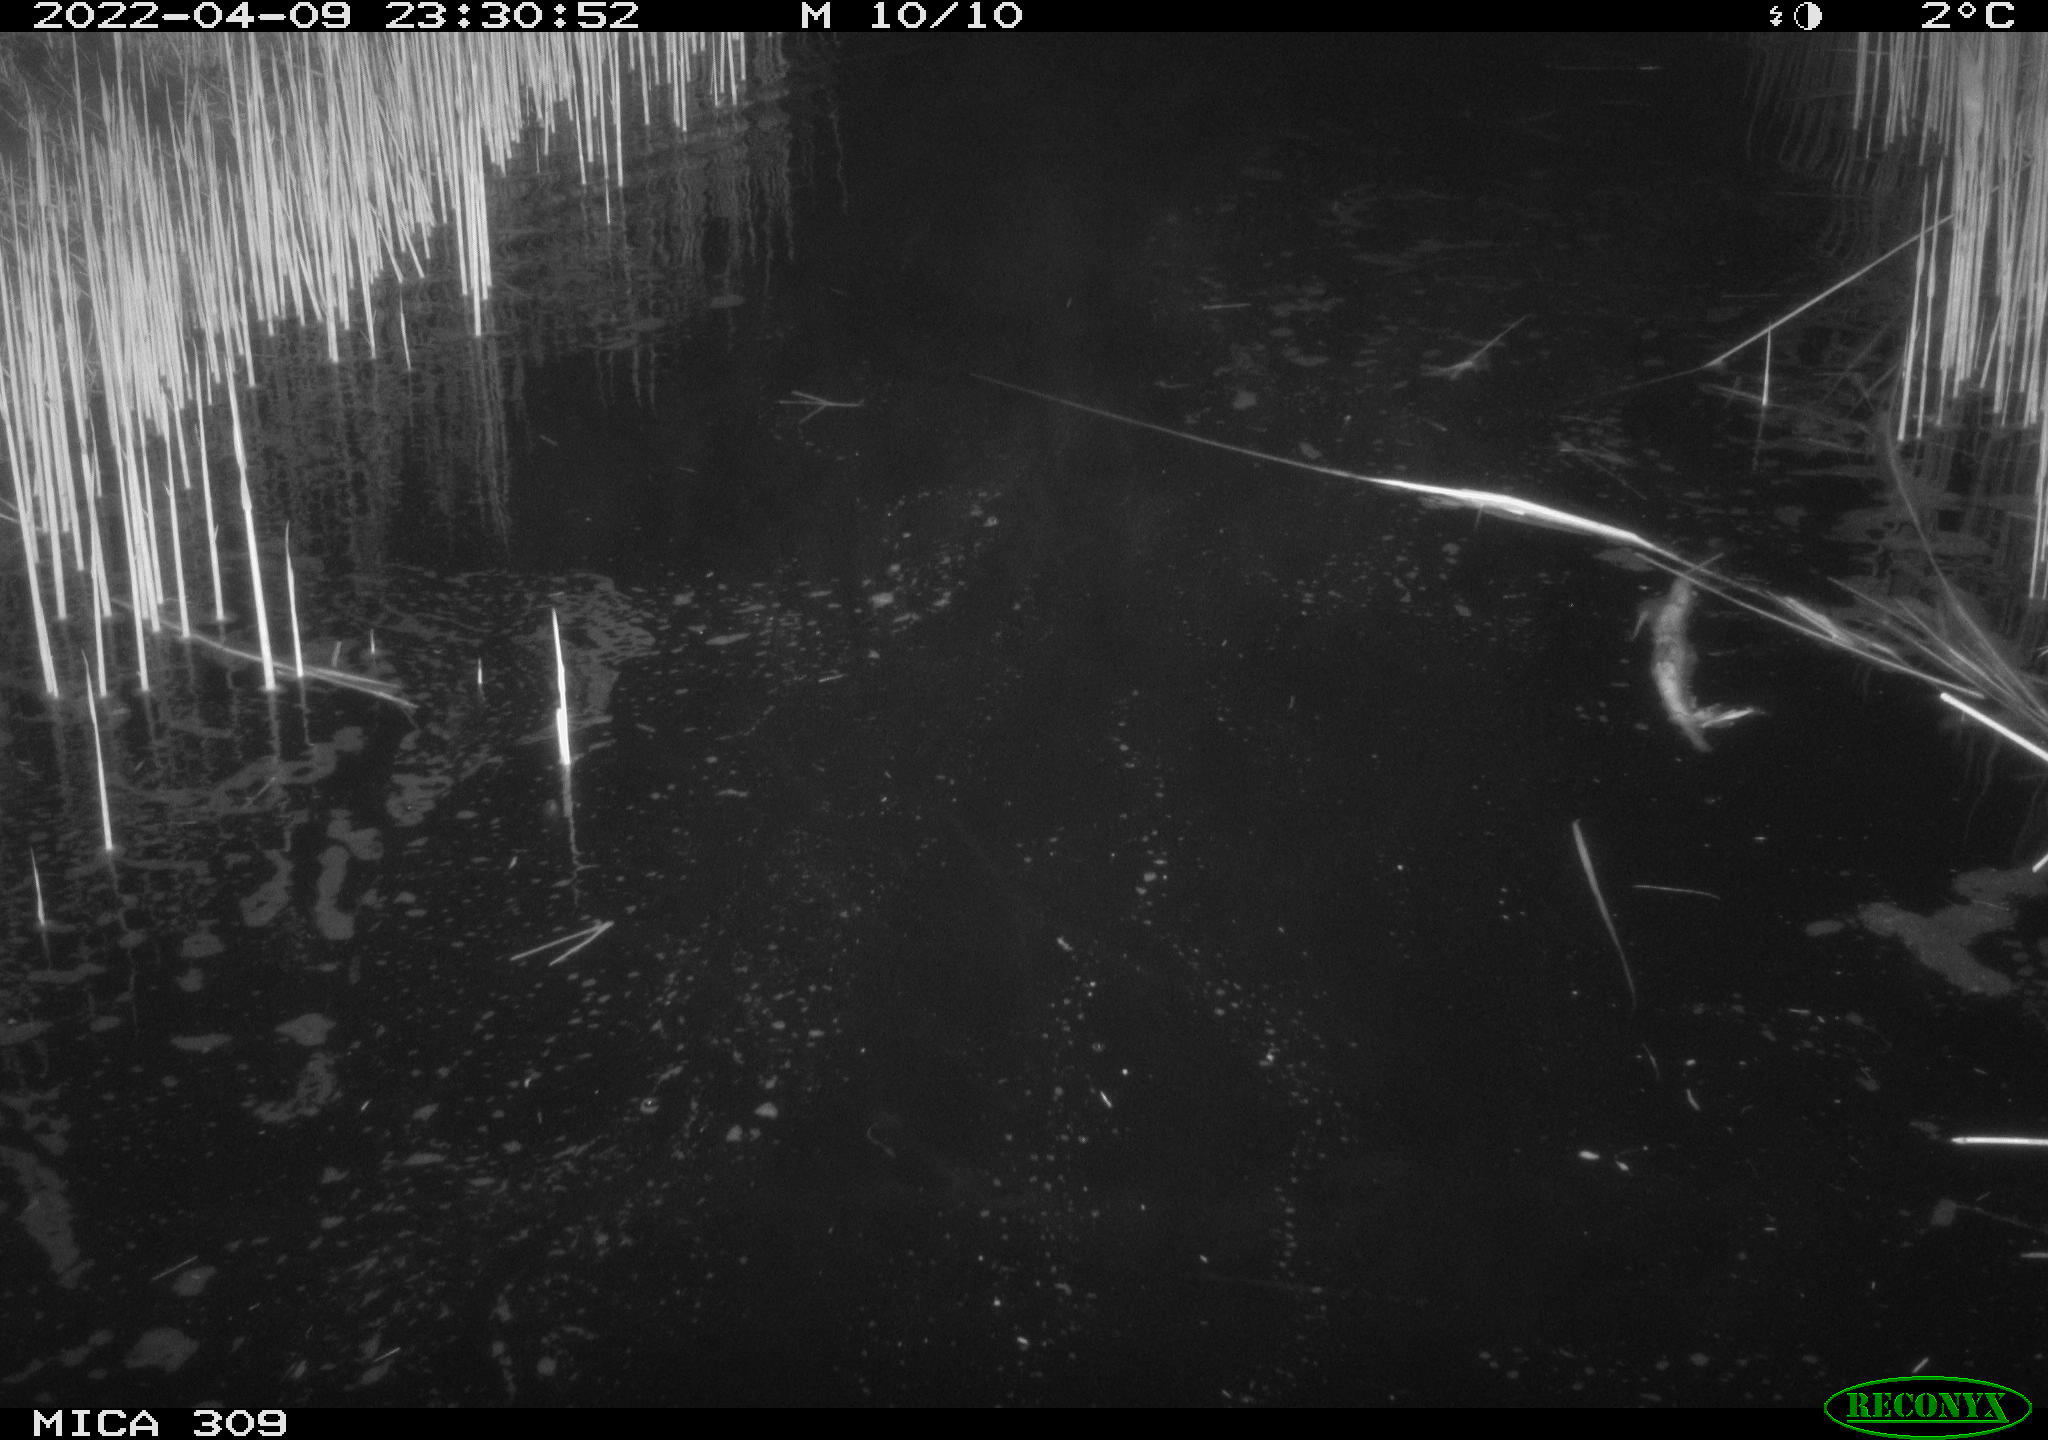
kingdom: Animalia
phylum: Chordata
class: Aves
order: Anseriformes
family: Anatidae
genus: Anas
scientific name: Anas platyrhynchos
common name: Mallard
